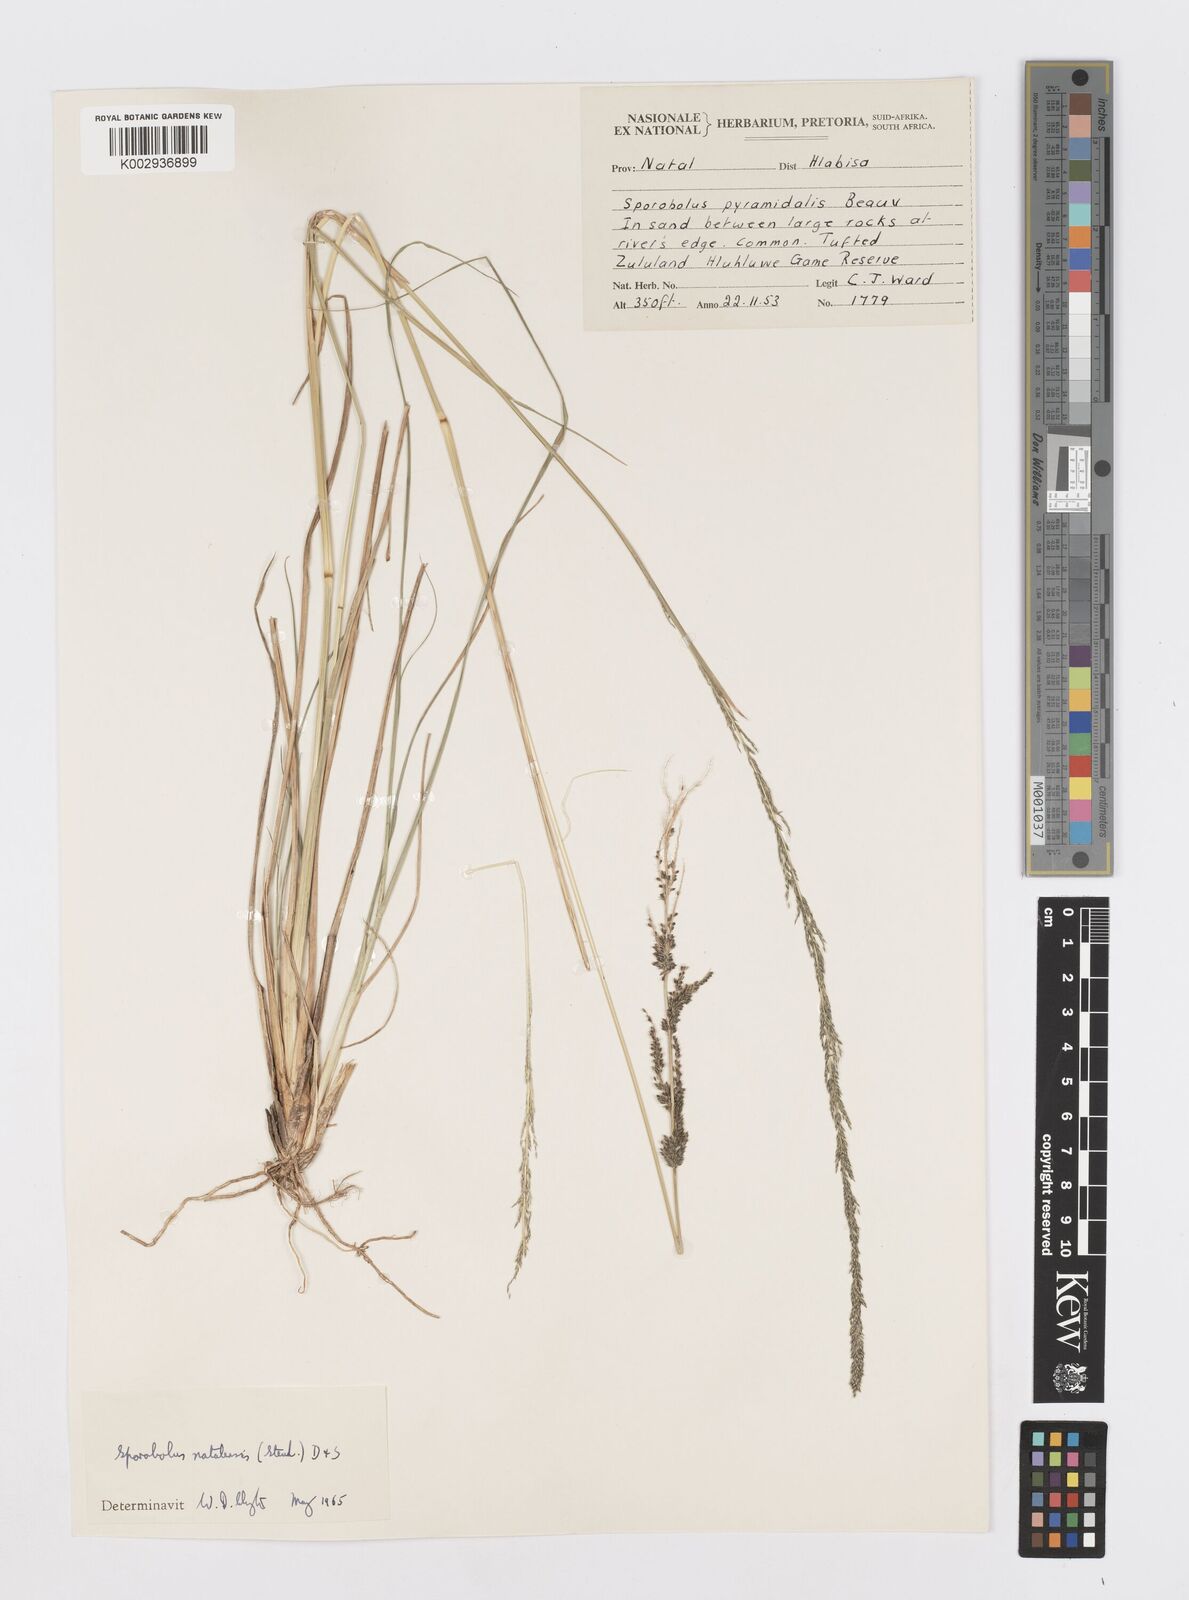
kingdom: Plantae
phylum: Tracheophyta
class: Liliopsida
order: Poales
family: Poaceae
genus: Sporobolus
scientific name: Sporobolus natalensis
